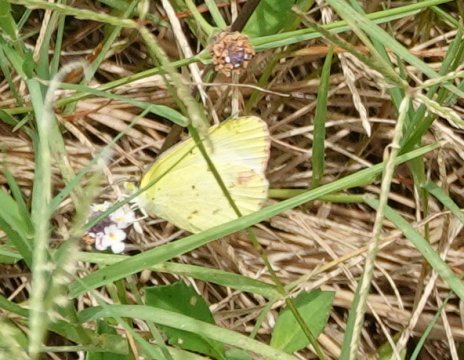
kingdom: Animalia
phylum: Arthropoda
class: Insecta
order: Lepidoptera
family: Pieridae
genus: Pyrisitia
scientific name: Pyrisitia lisa
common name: Little Yellow
